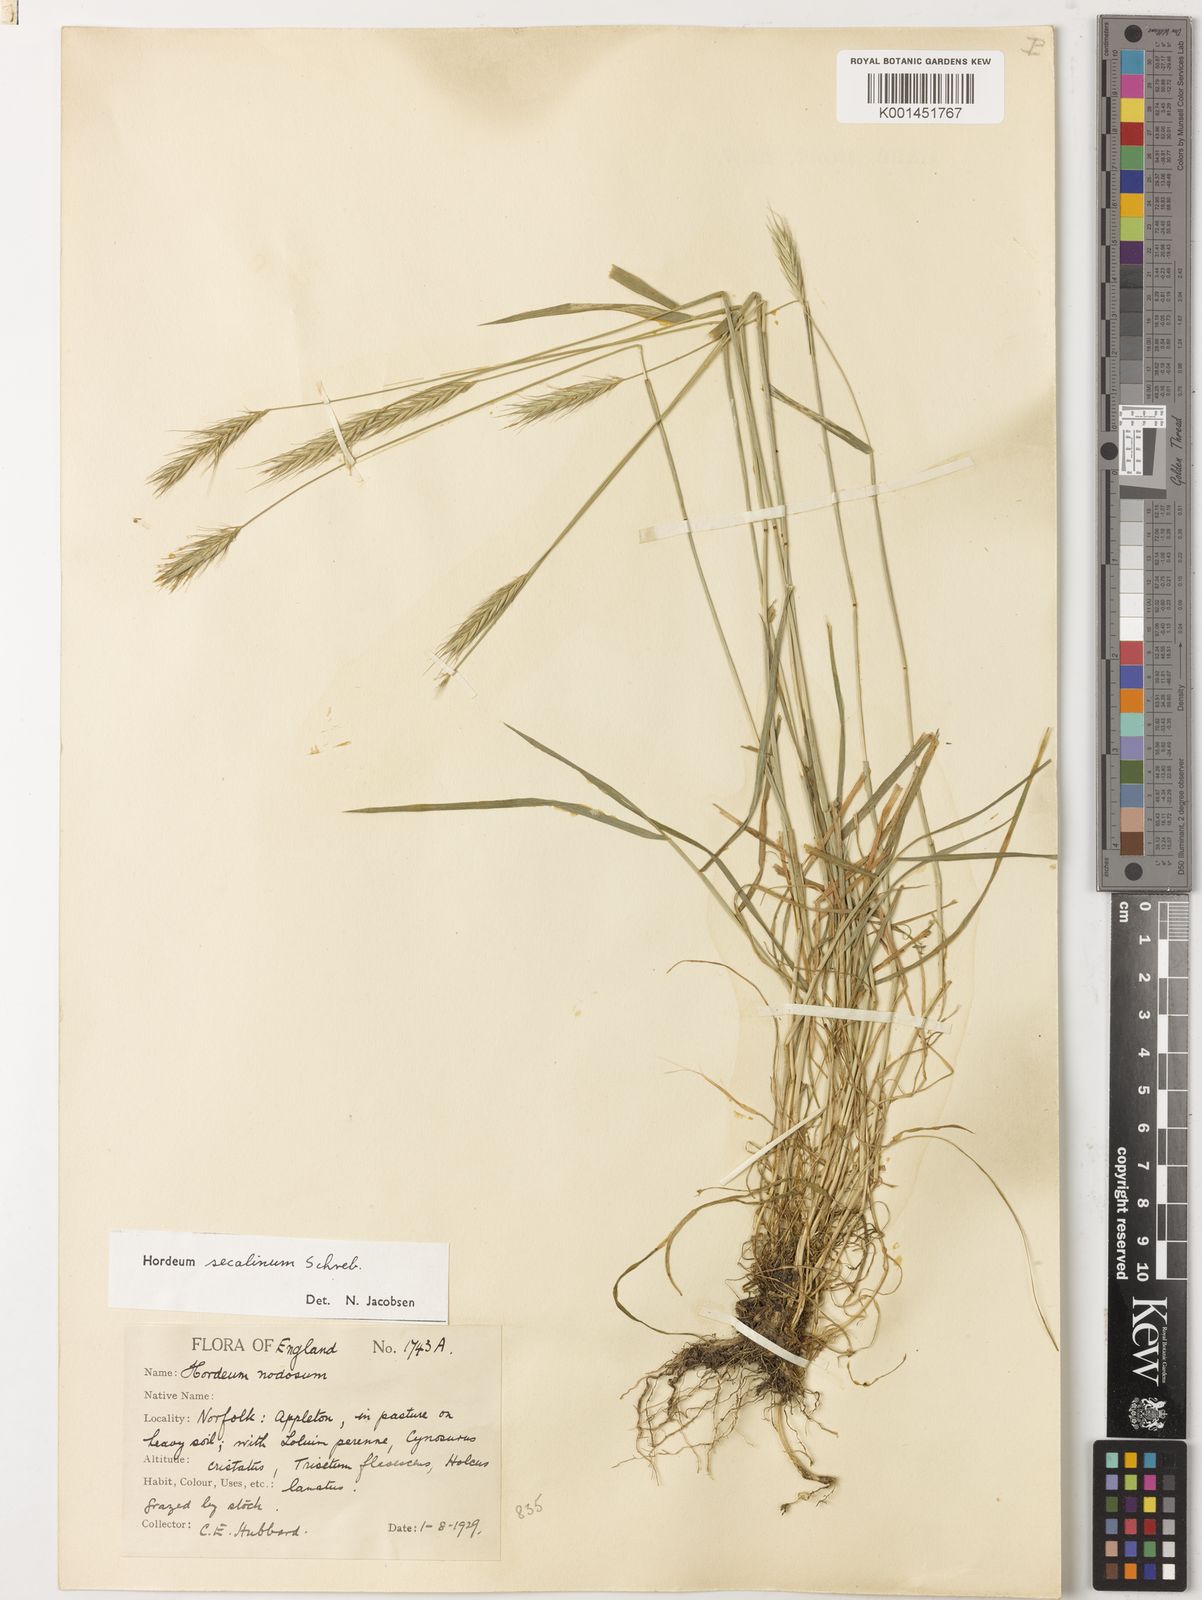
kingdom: Plantae
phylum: Tracheophyta
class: Liliopsida
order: Poales
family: Poaceae
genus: Hordeum
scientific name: Hordeum secalinum
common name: Meadow barley
